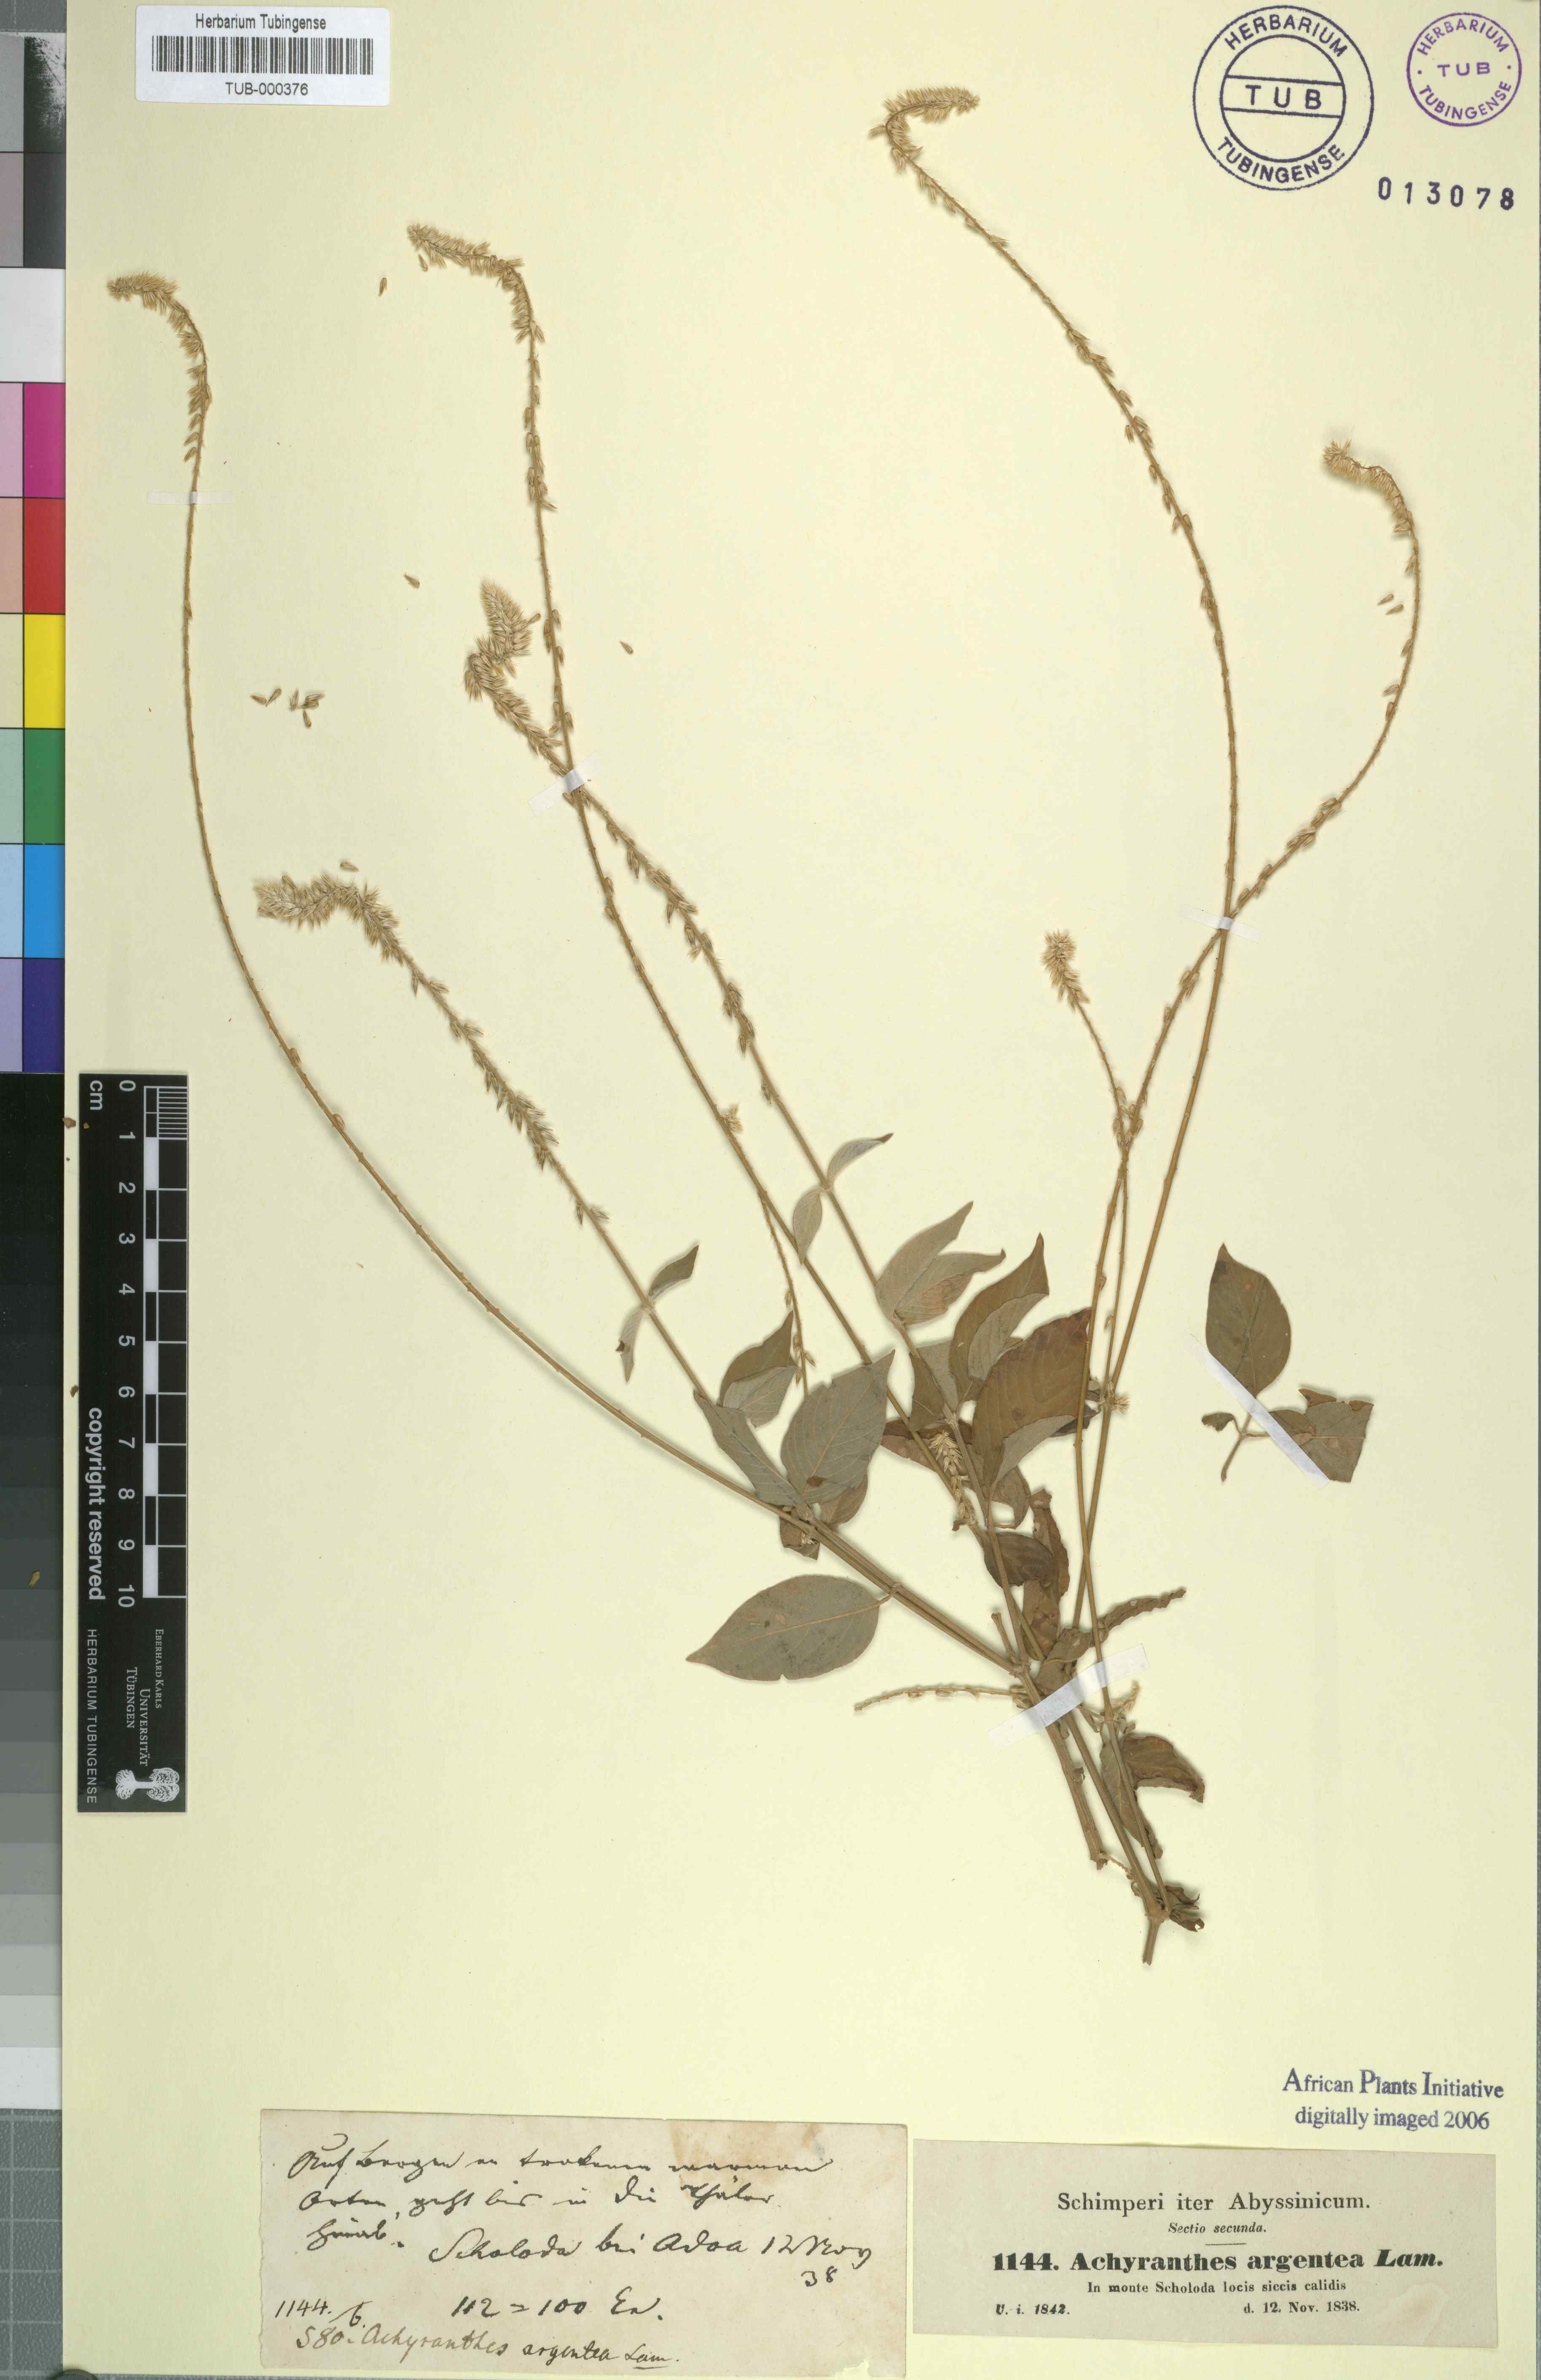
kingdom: Plantae
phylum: Tracheophyta
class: Magnoliopsida
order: Caryophyllales
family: Amaranthaceae
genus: Achyranthes
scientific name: Achyranthes aspera
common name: Devil's horsewhip
